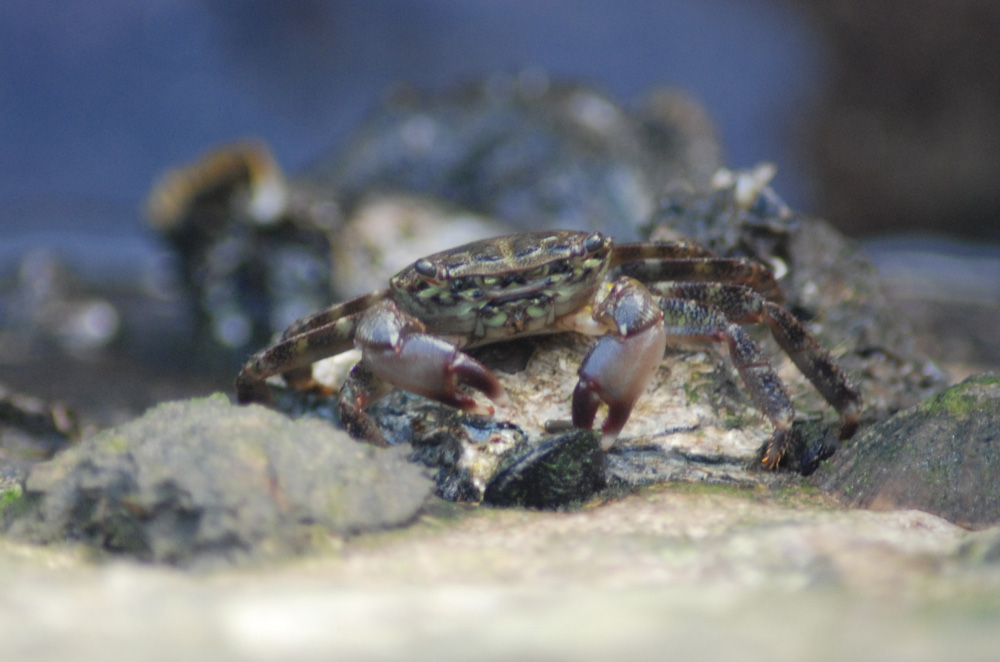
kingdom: Animalia
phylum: Arthropoda
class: Malacostraca
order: Decapoda
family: Grapsidae
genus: Pachygrapsus
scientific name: Pachygrapsus marmoratus
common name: Marbled rock crab
